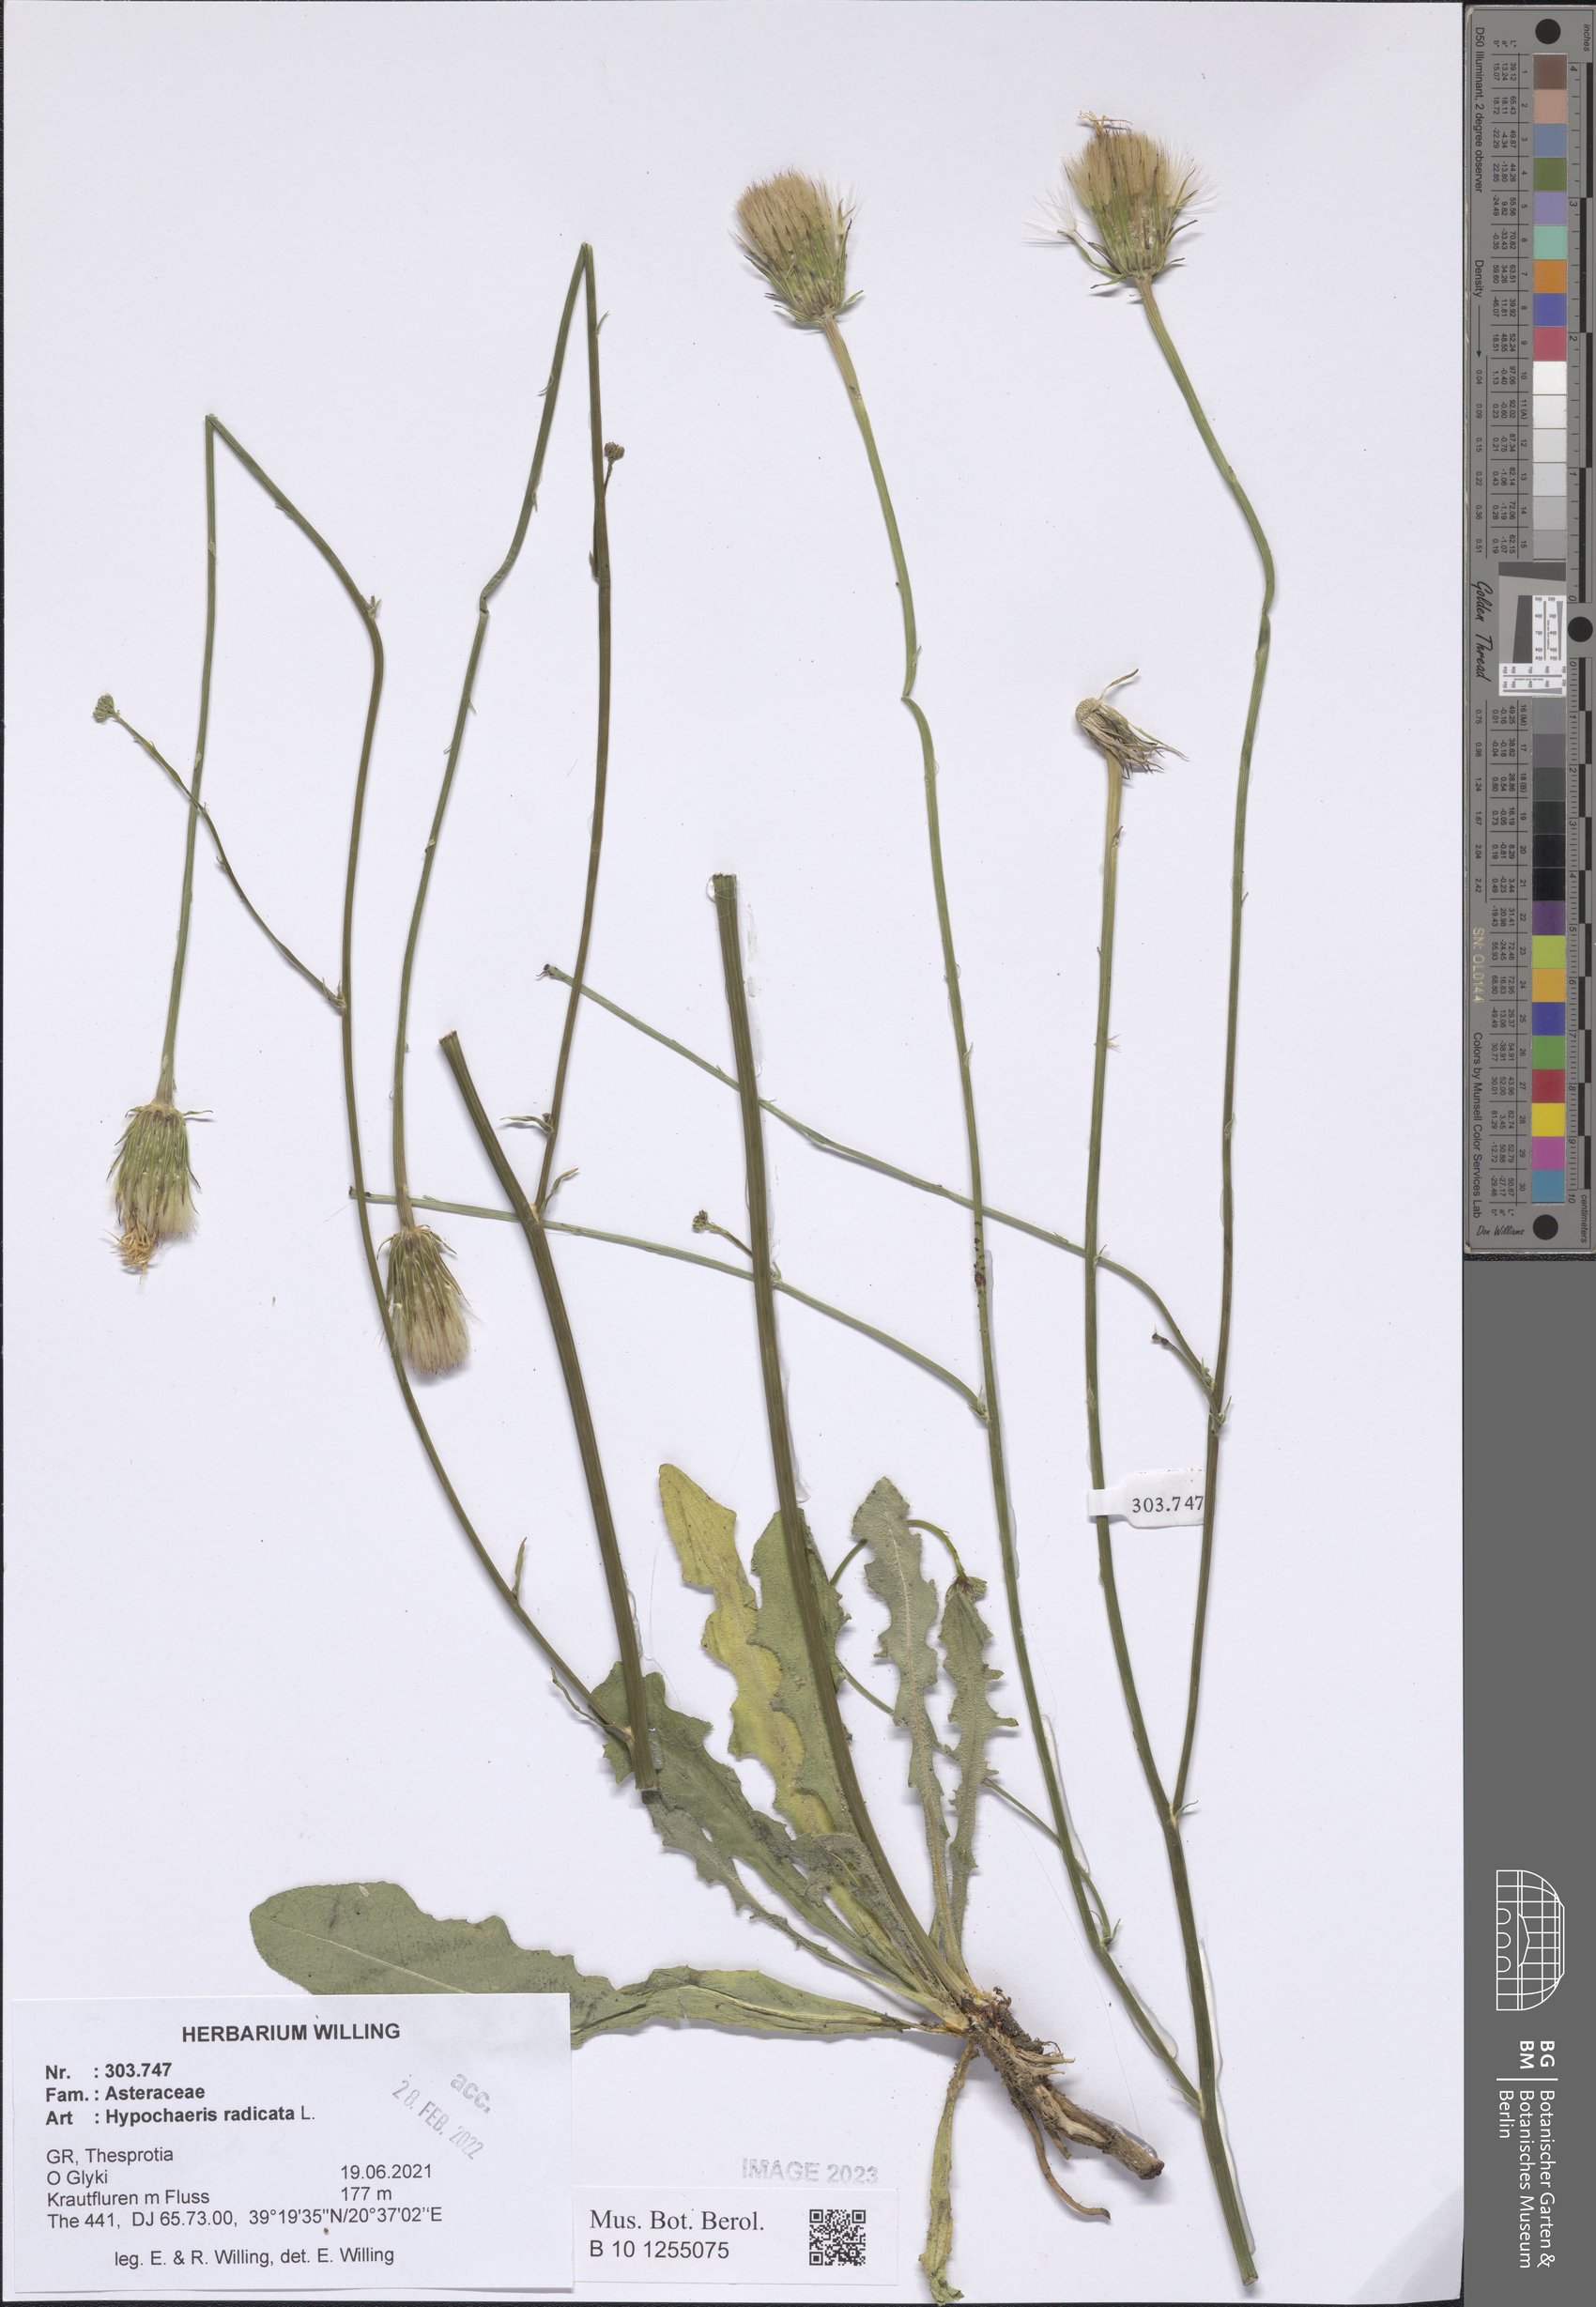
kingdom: Plantae
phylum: Tracheophyta
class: Magnoliopsida
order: Asterales
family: Asteraceae
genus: Hypochaeris
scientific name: Hypochaeris radicata
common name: Flatweed
